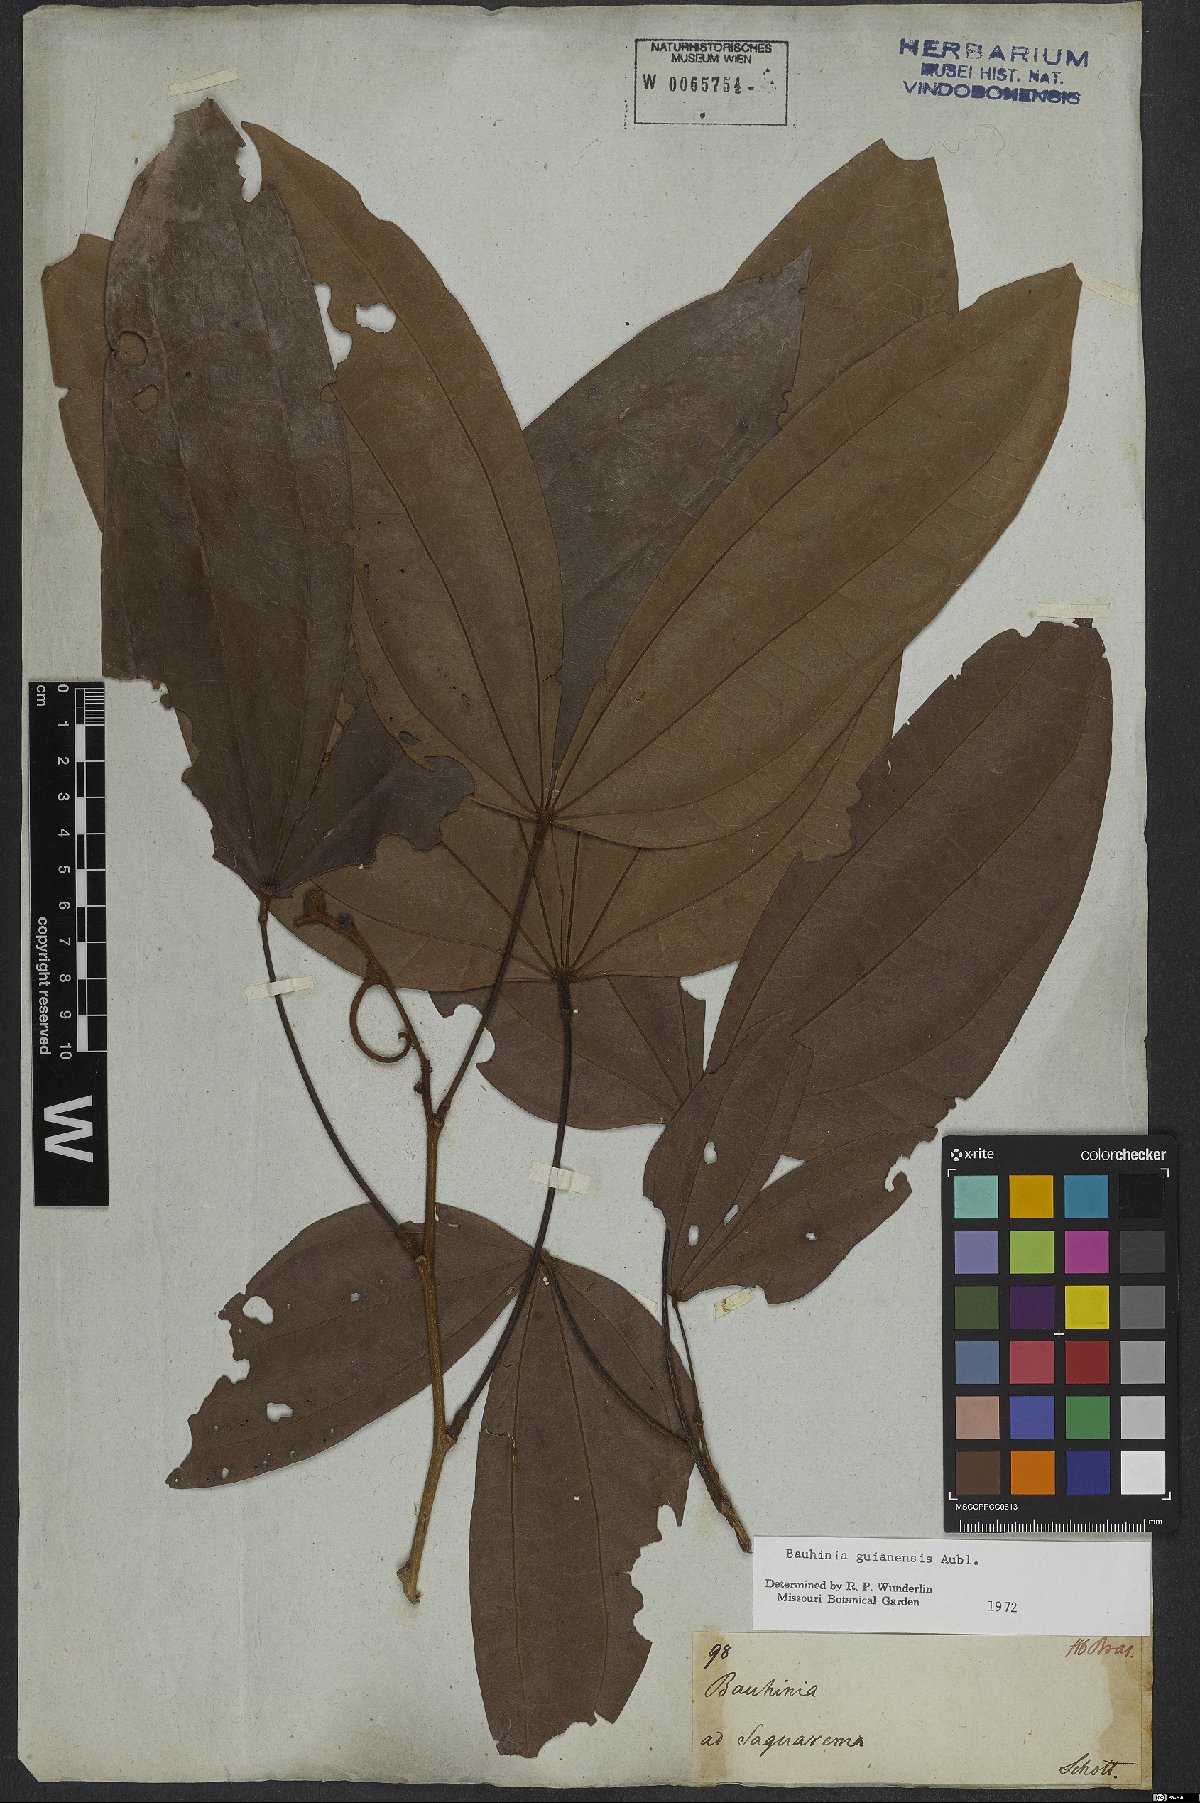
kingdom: Plantae
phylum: Tracheophyta
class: Magnoliopsida
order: Fabales
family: Fabaceae
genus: Schnella
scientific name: Schnella guianensis
